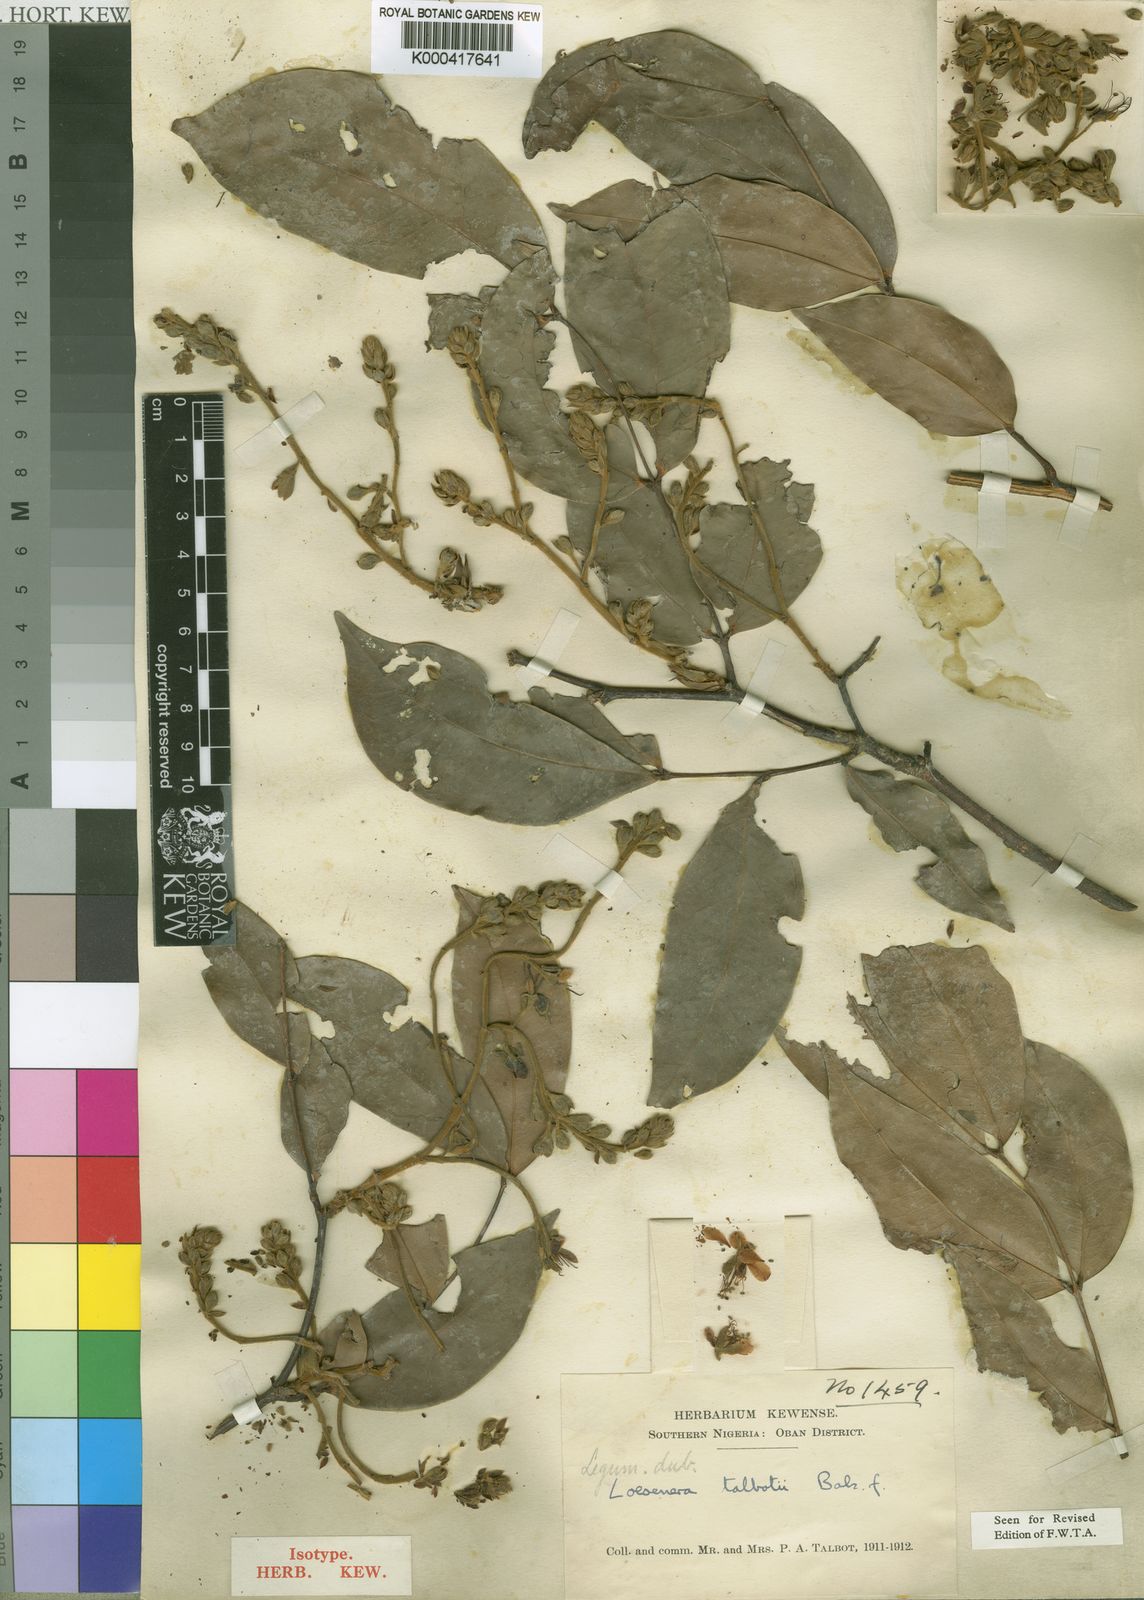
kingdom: Plantae
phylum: Tracheophyta
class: Magnoliopsida
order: Fabales
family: Fabaceae
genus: Loesenera
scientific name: Loesenera talbotii
